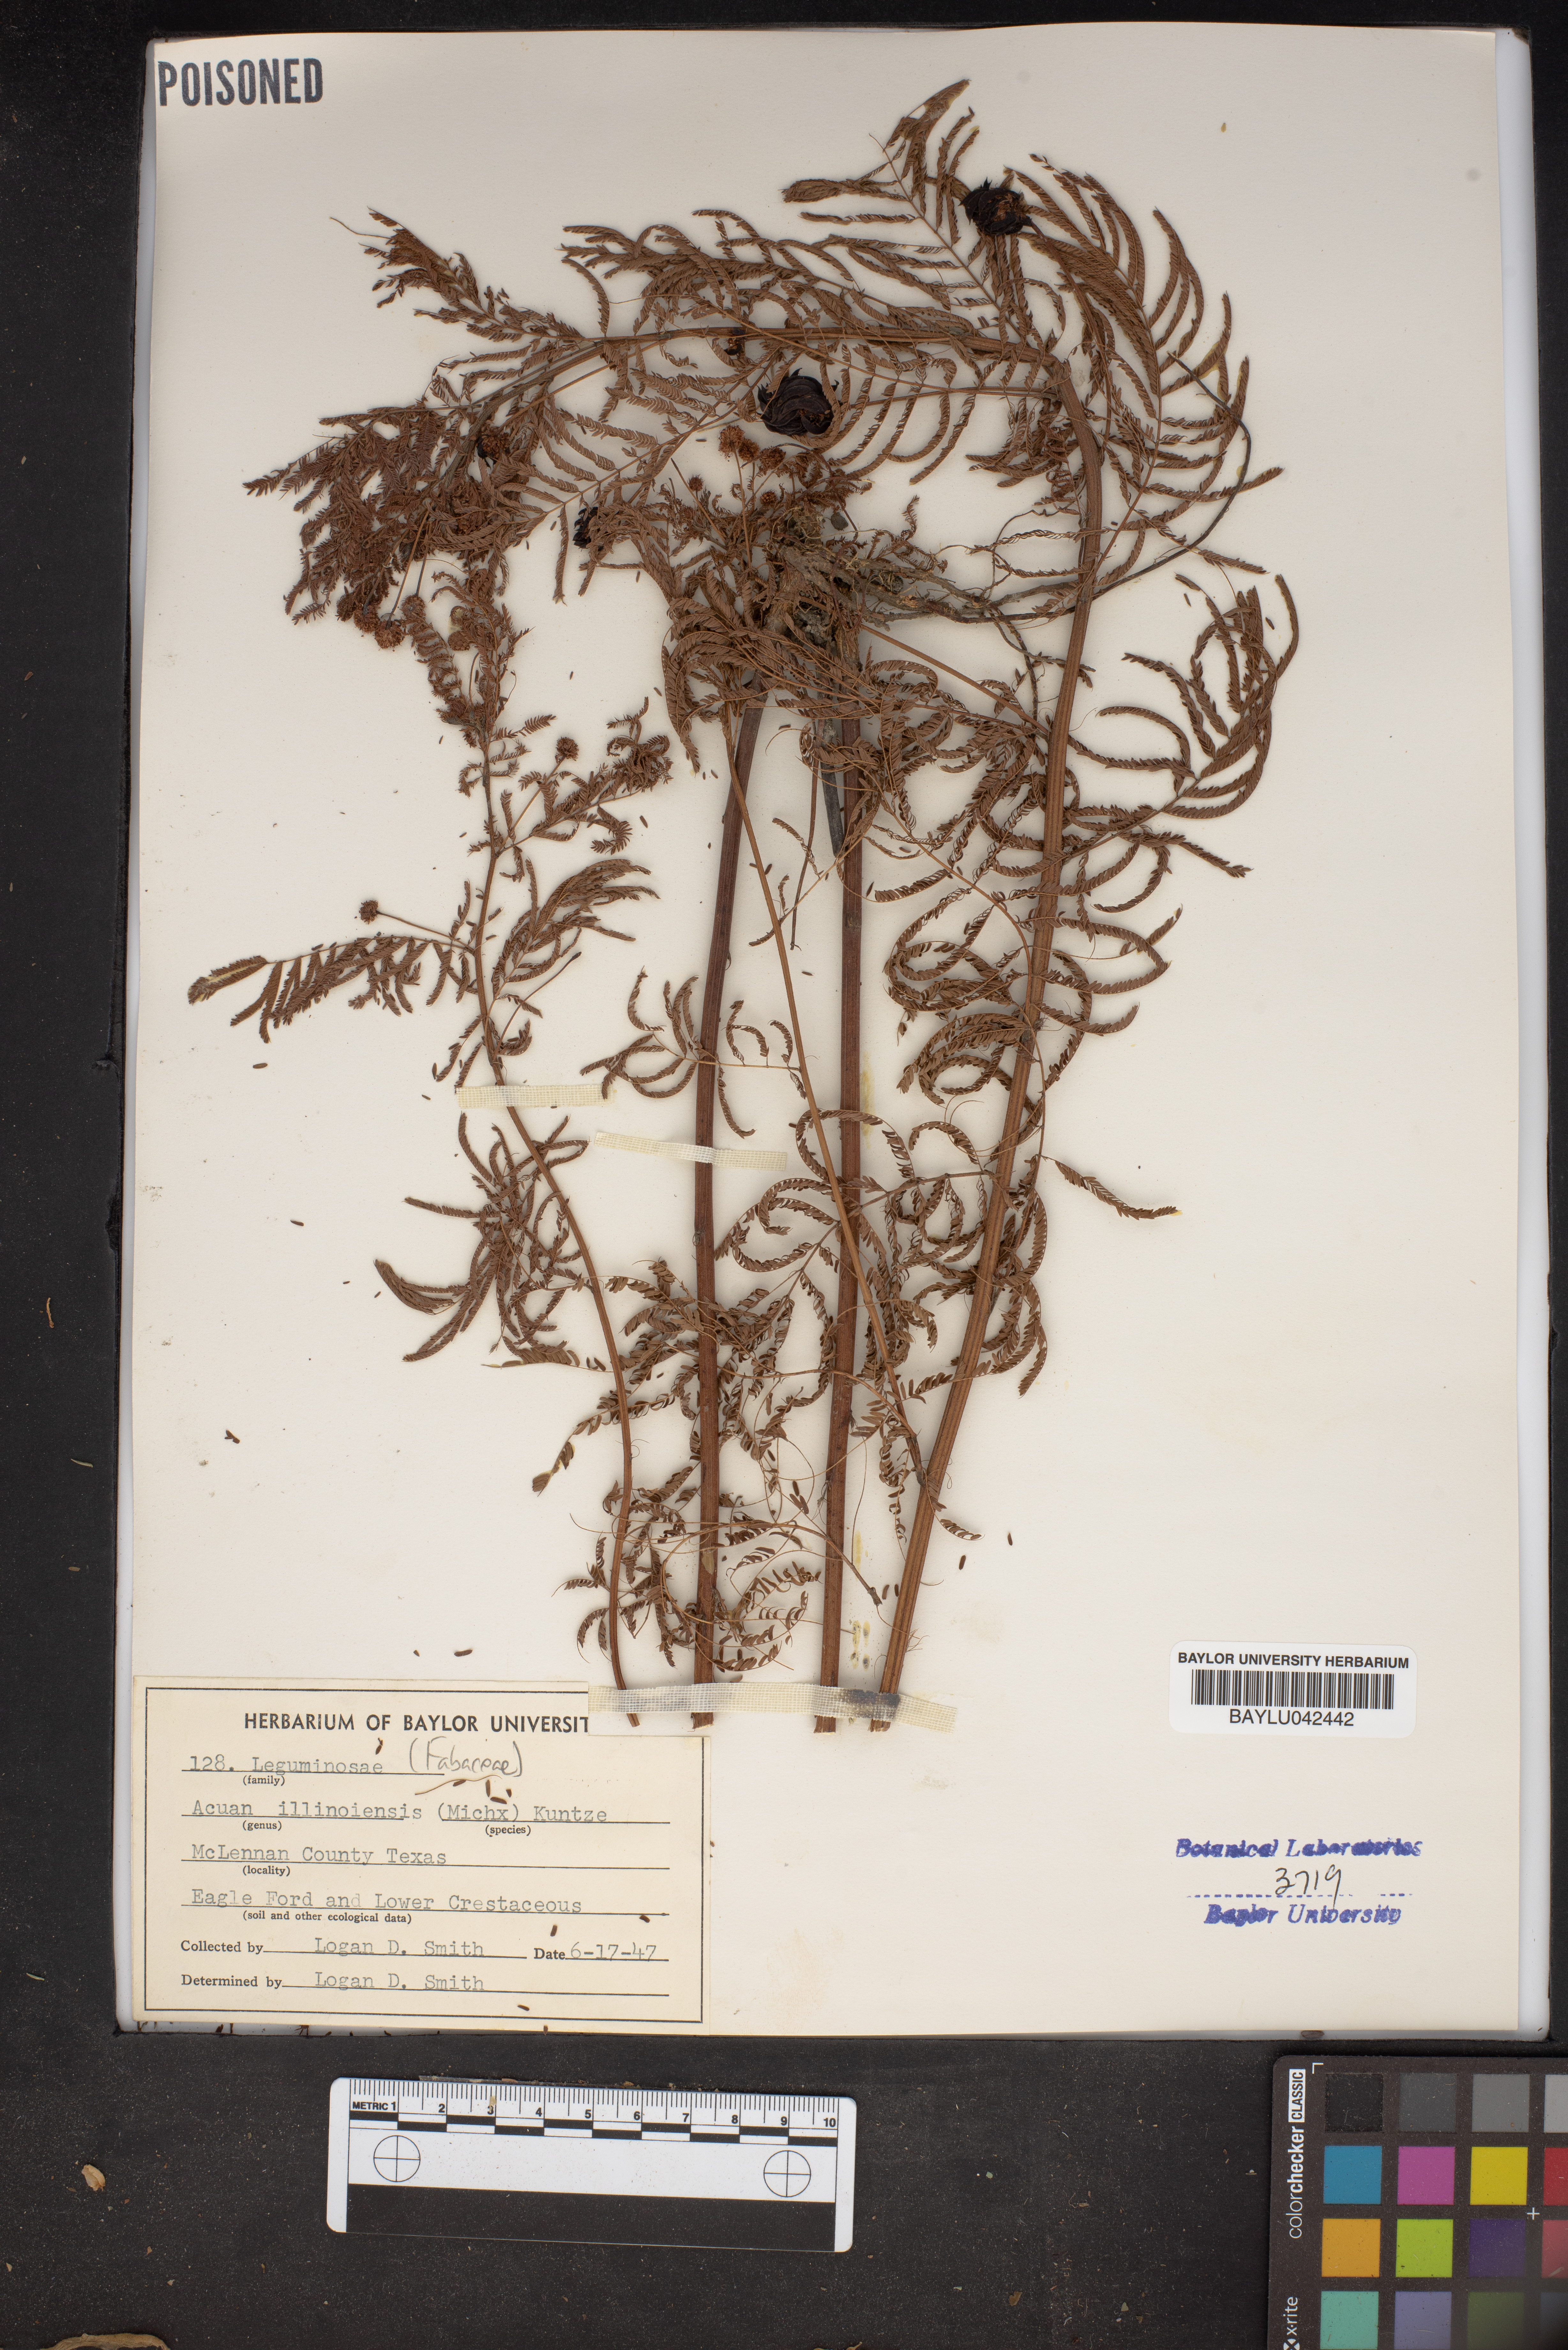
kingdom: Plantae
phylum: Tracheophyta
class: Magnoliopsida
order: Fabales
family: Fabaceae
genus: Desmanthus
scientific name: Desmanthus Acuan illinoensis
